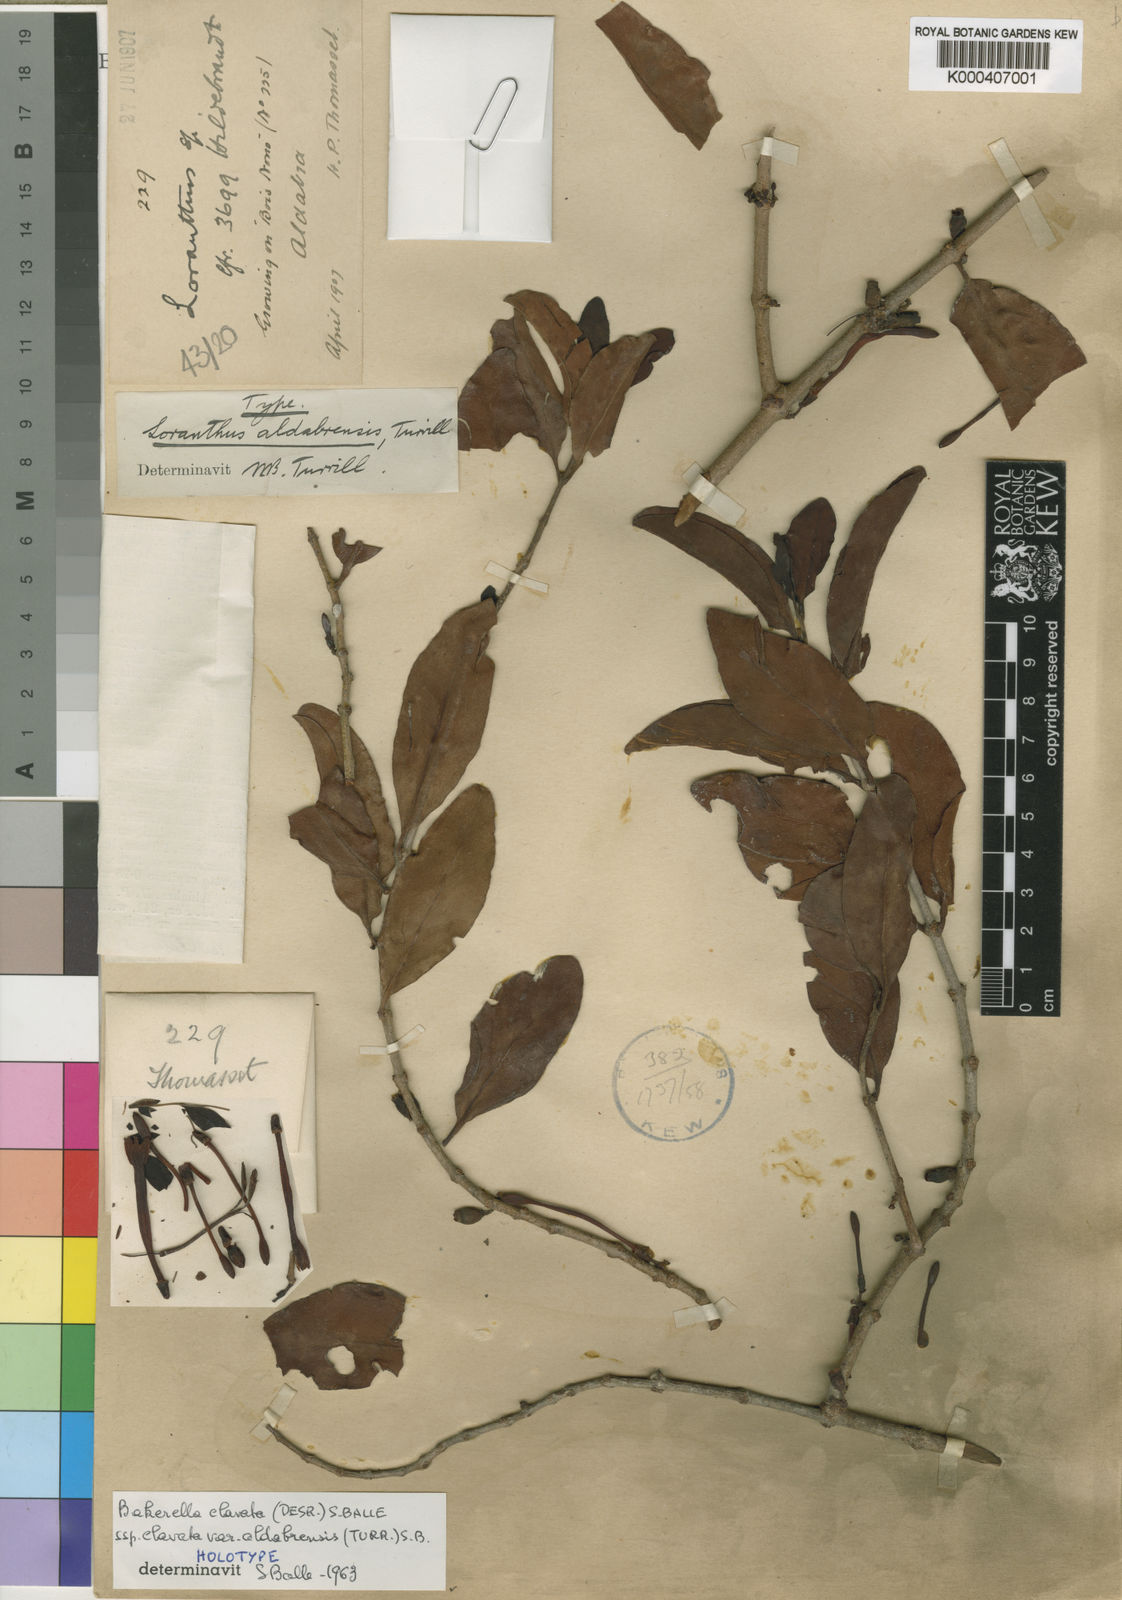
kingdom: Plantae
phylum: Tracheophyta
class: Magnoliopsida
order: Santalales
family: Loranthaceae
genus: Bakerella
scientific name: Bakerella clavata
